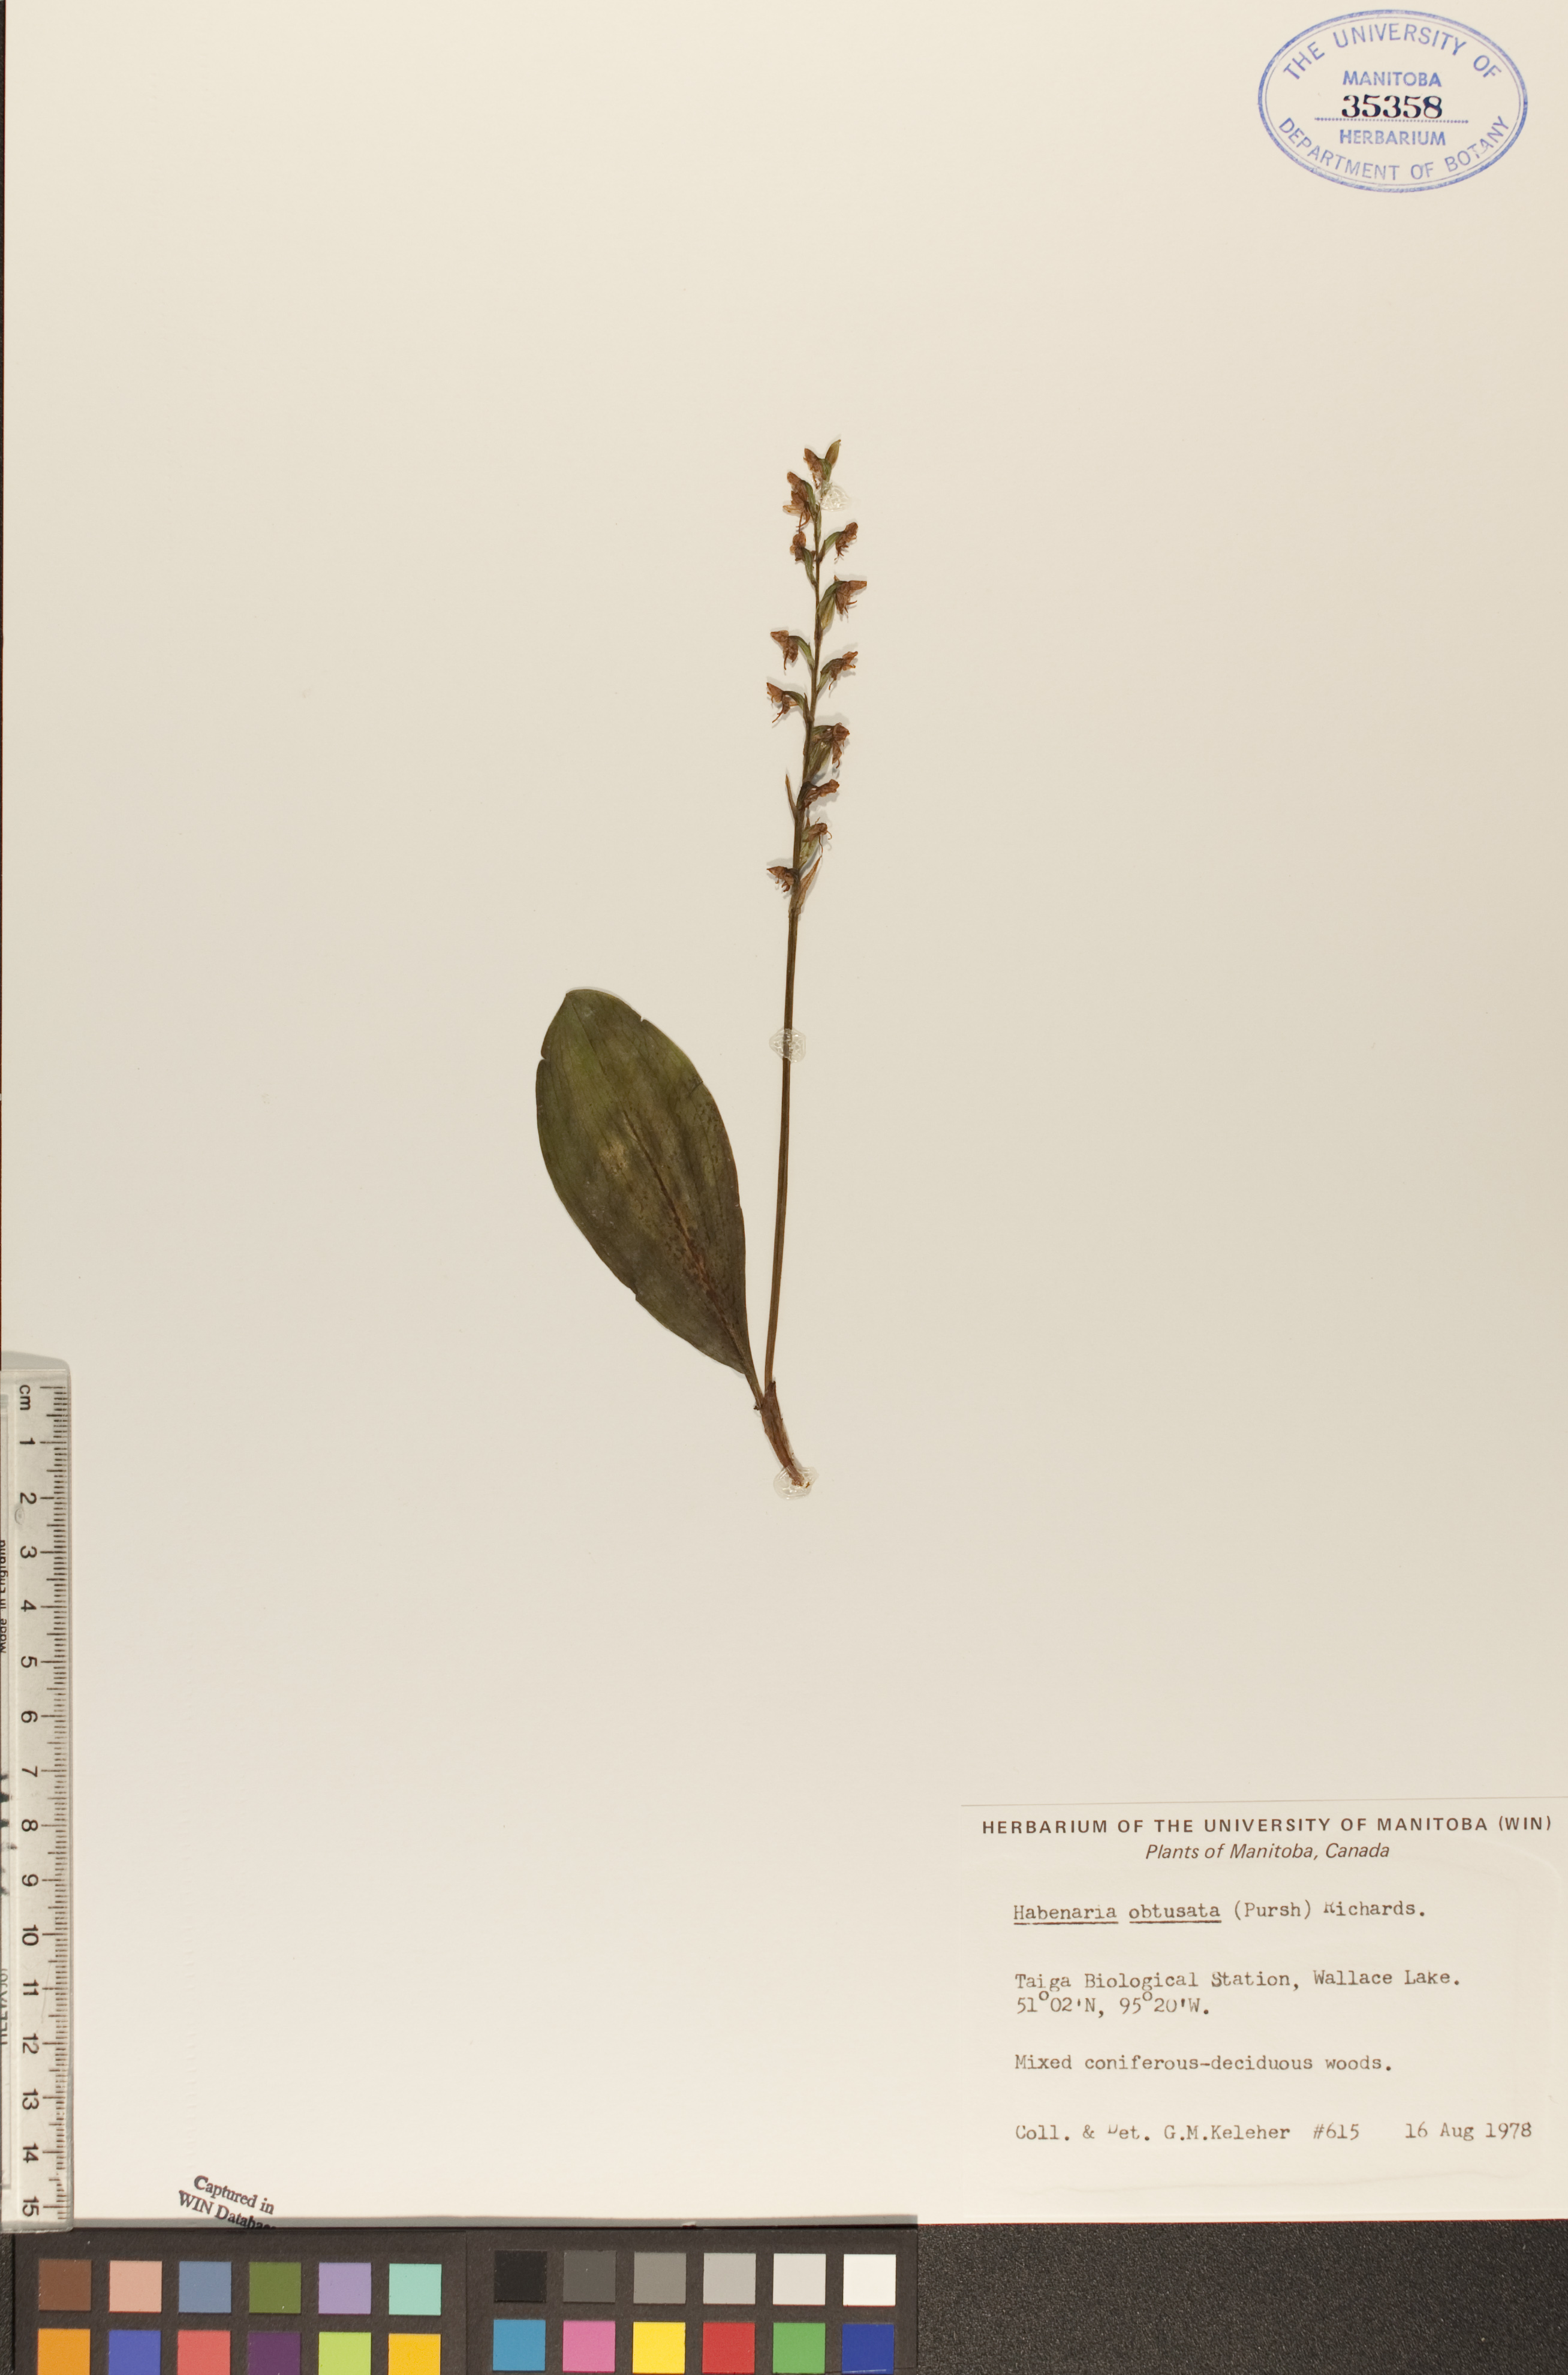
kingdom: Plantae
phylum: Tracheophyta
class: Liliopsida
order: Asparagales
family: Orchidaceae
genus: Platanthera
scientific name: Platanthera obtusata
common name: Blunt bog orchid
